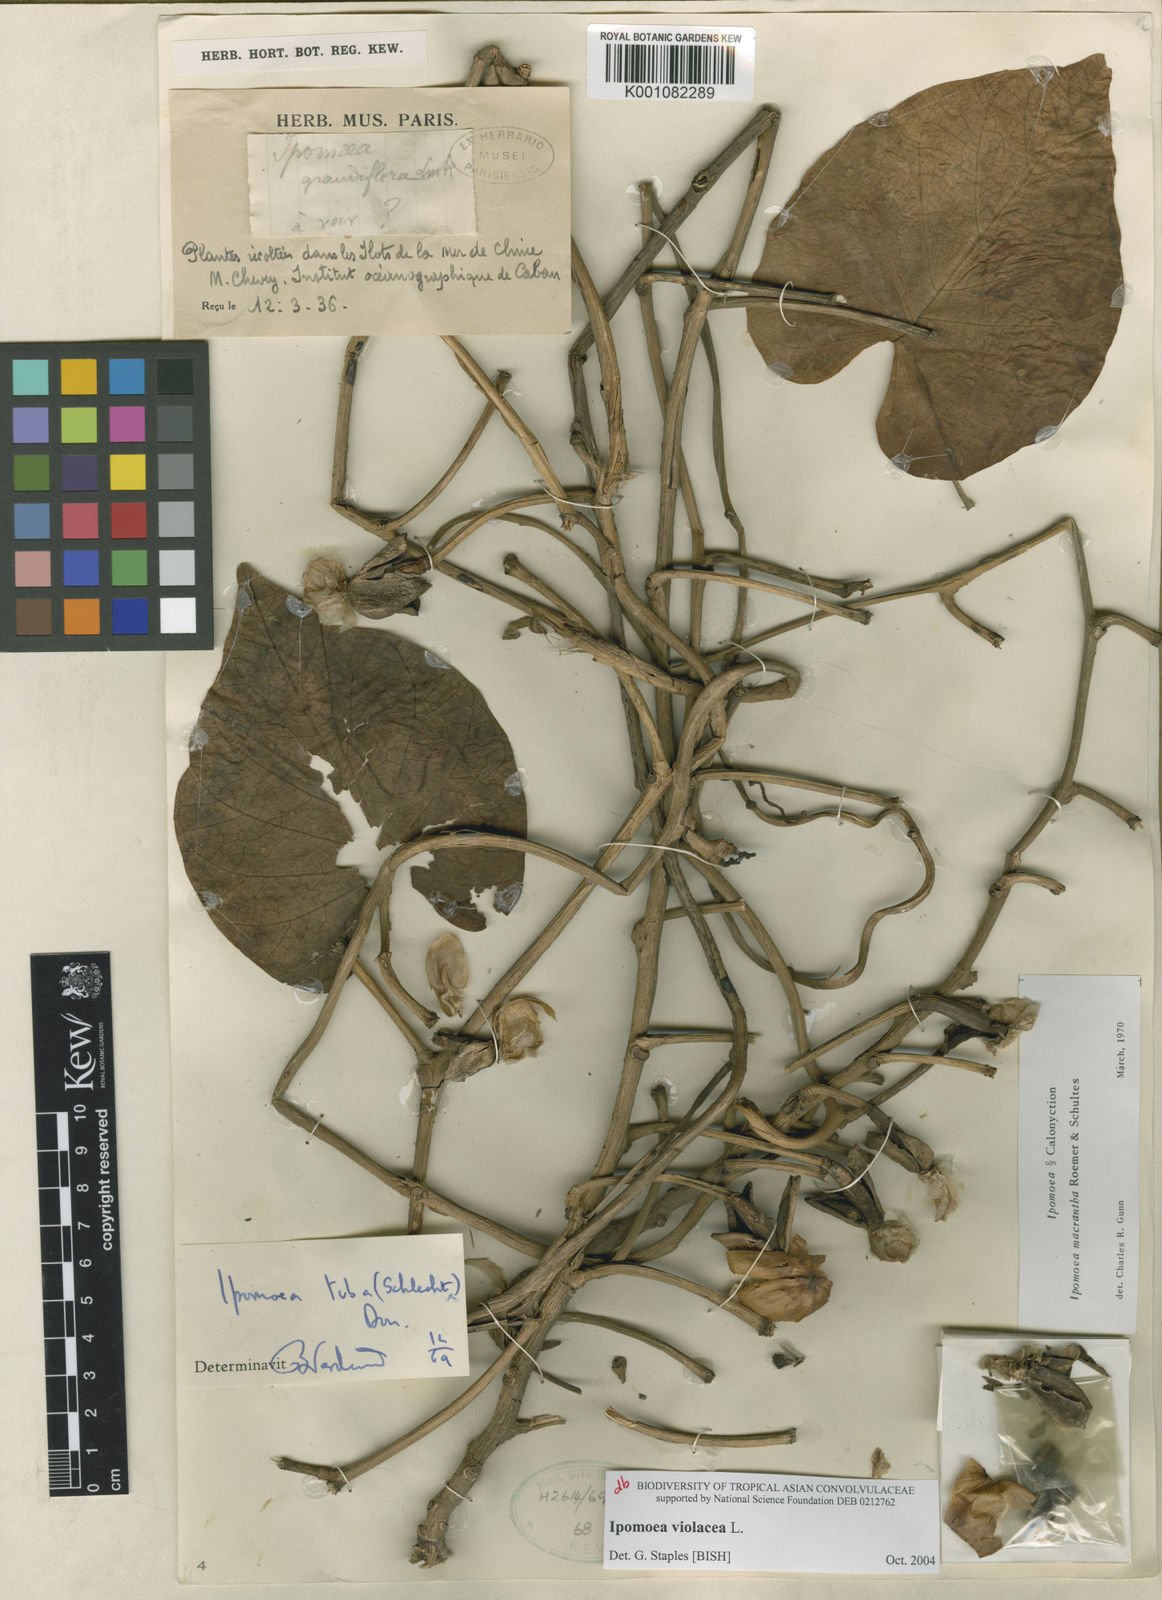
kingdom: Plantae
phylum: Tracheophyta
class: Magnoliopsida
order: Solanales
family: Convolvulaceae
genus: Ipomoea
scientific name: Ipomoea violacea
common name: Beach moonflower
